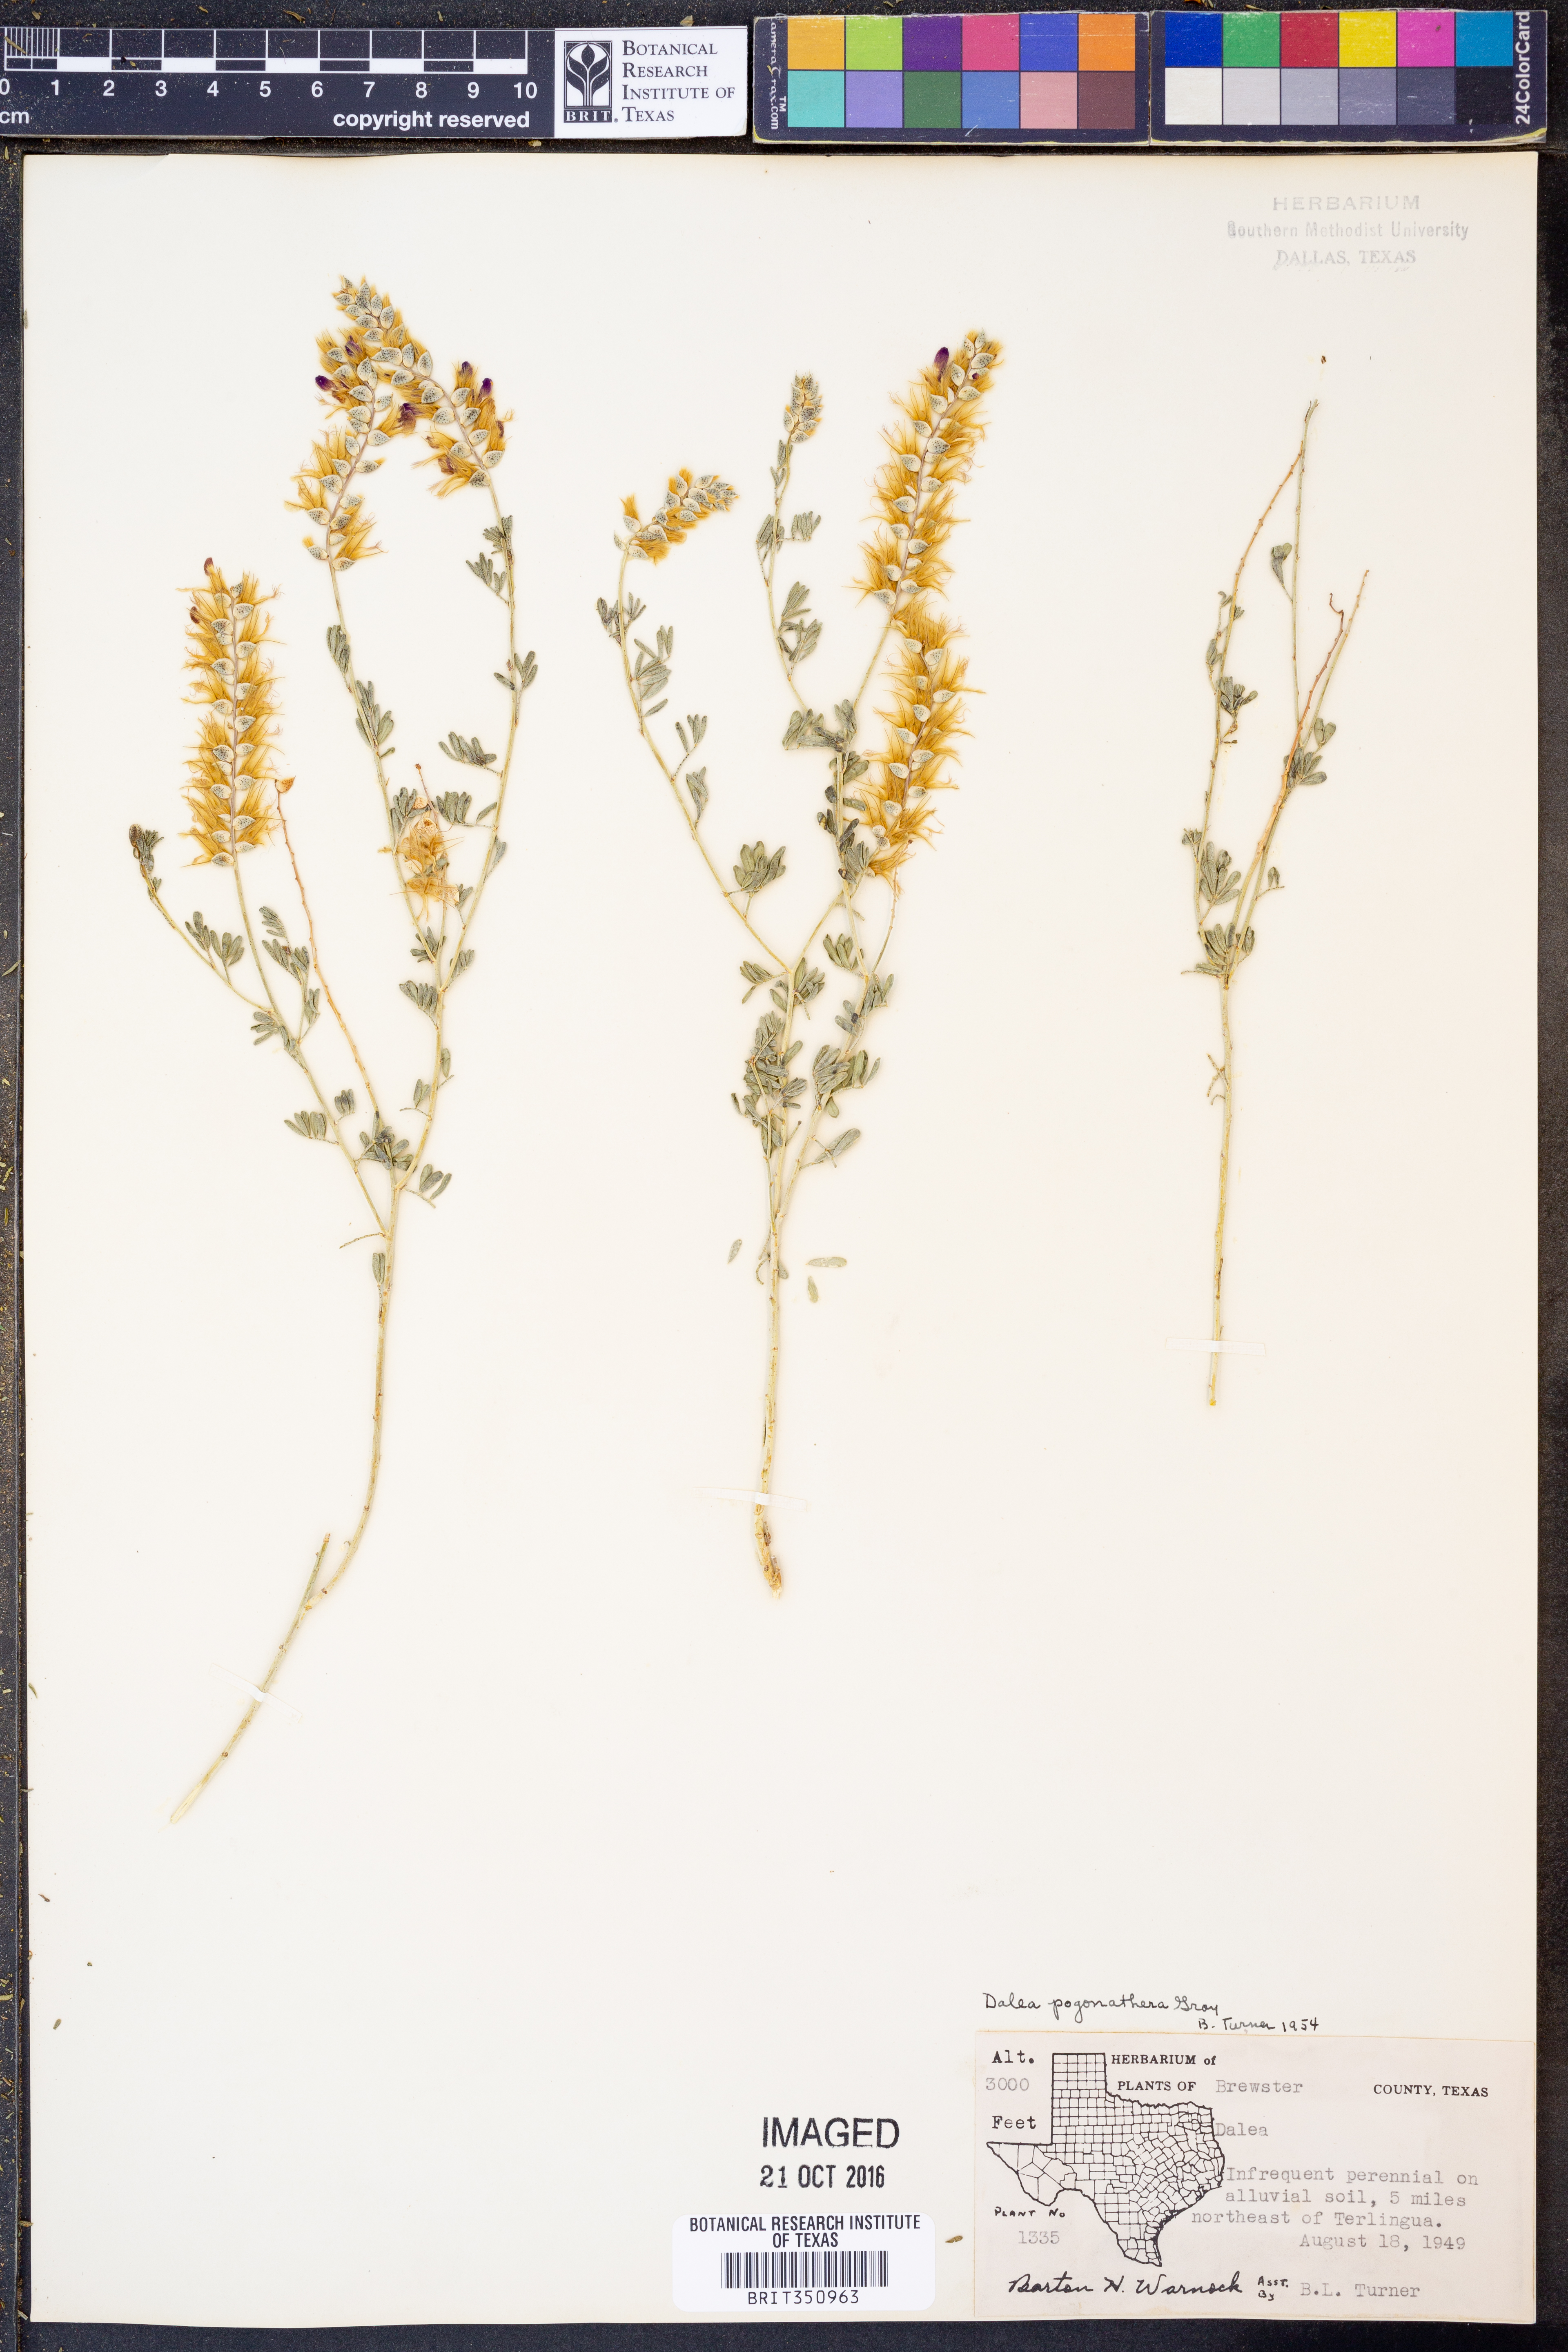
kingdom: Plantae
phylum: Tracheophyta
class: Magnoliopsida
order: Fabales
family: Fabaceae
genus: Dalea
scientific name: Dalea pogonathera
